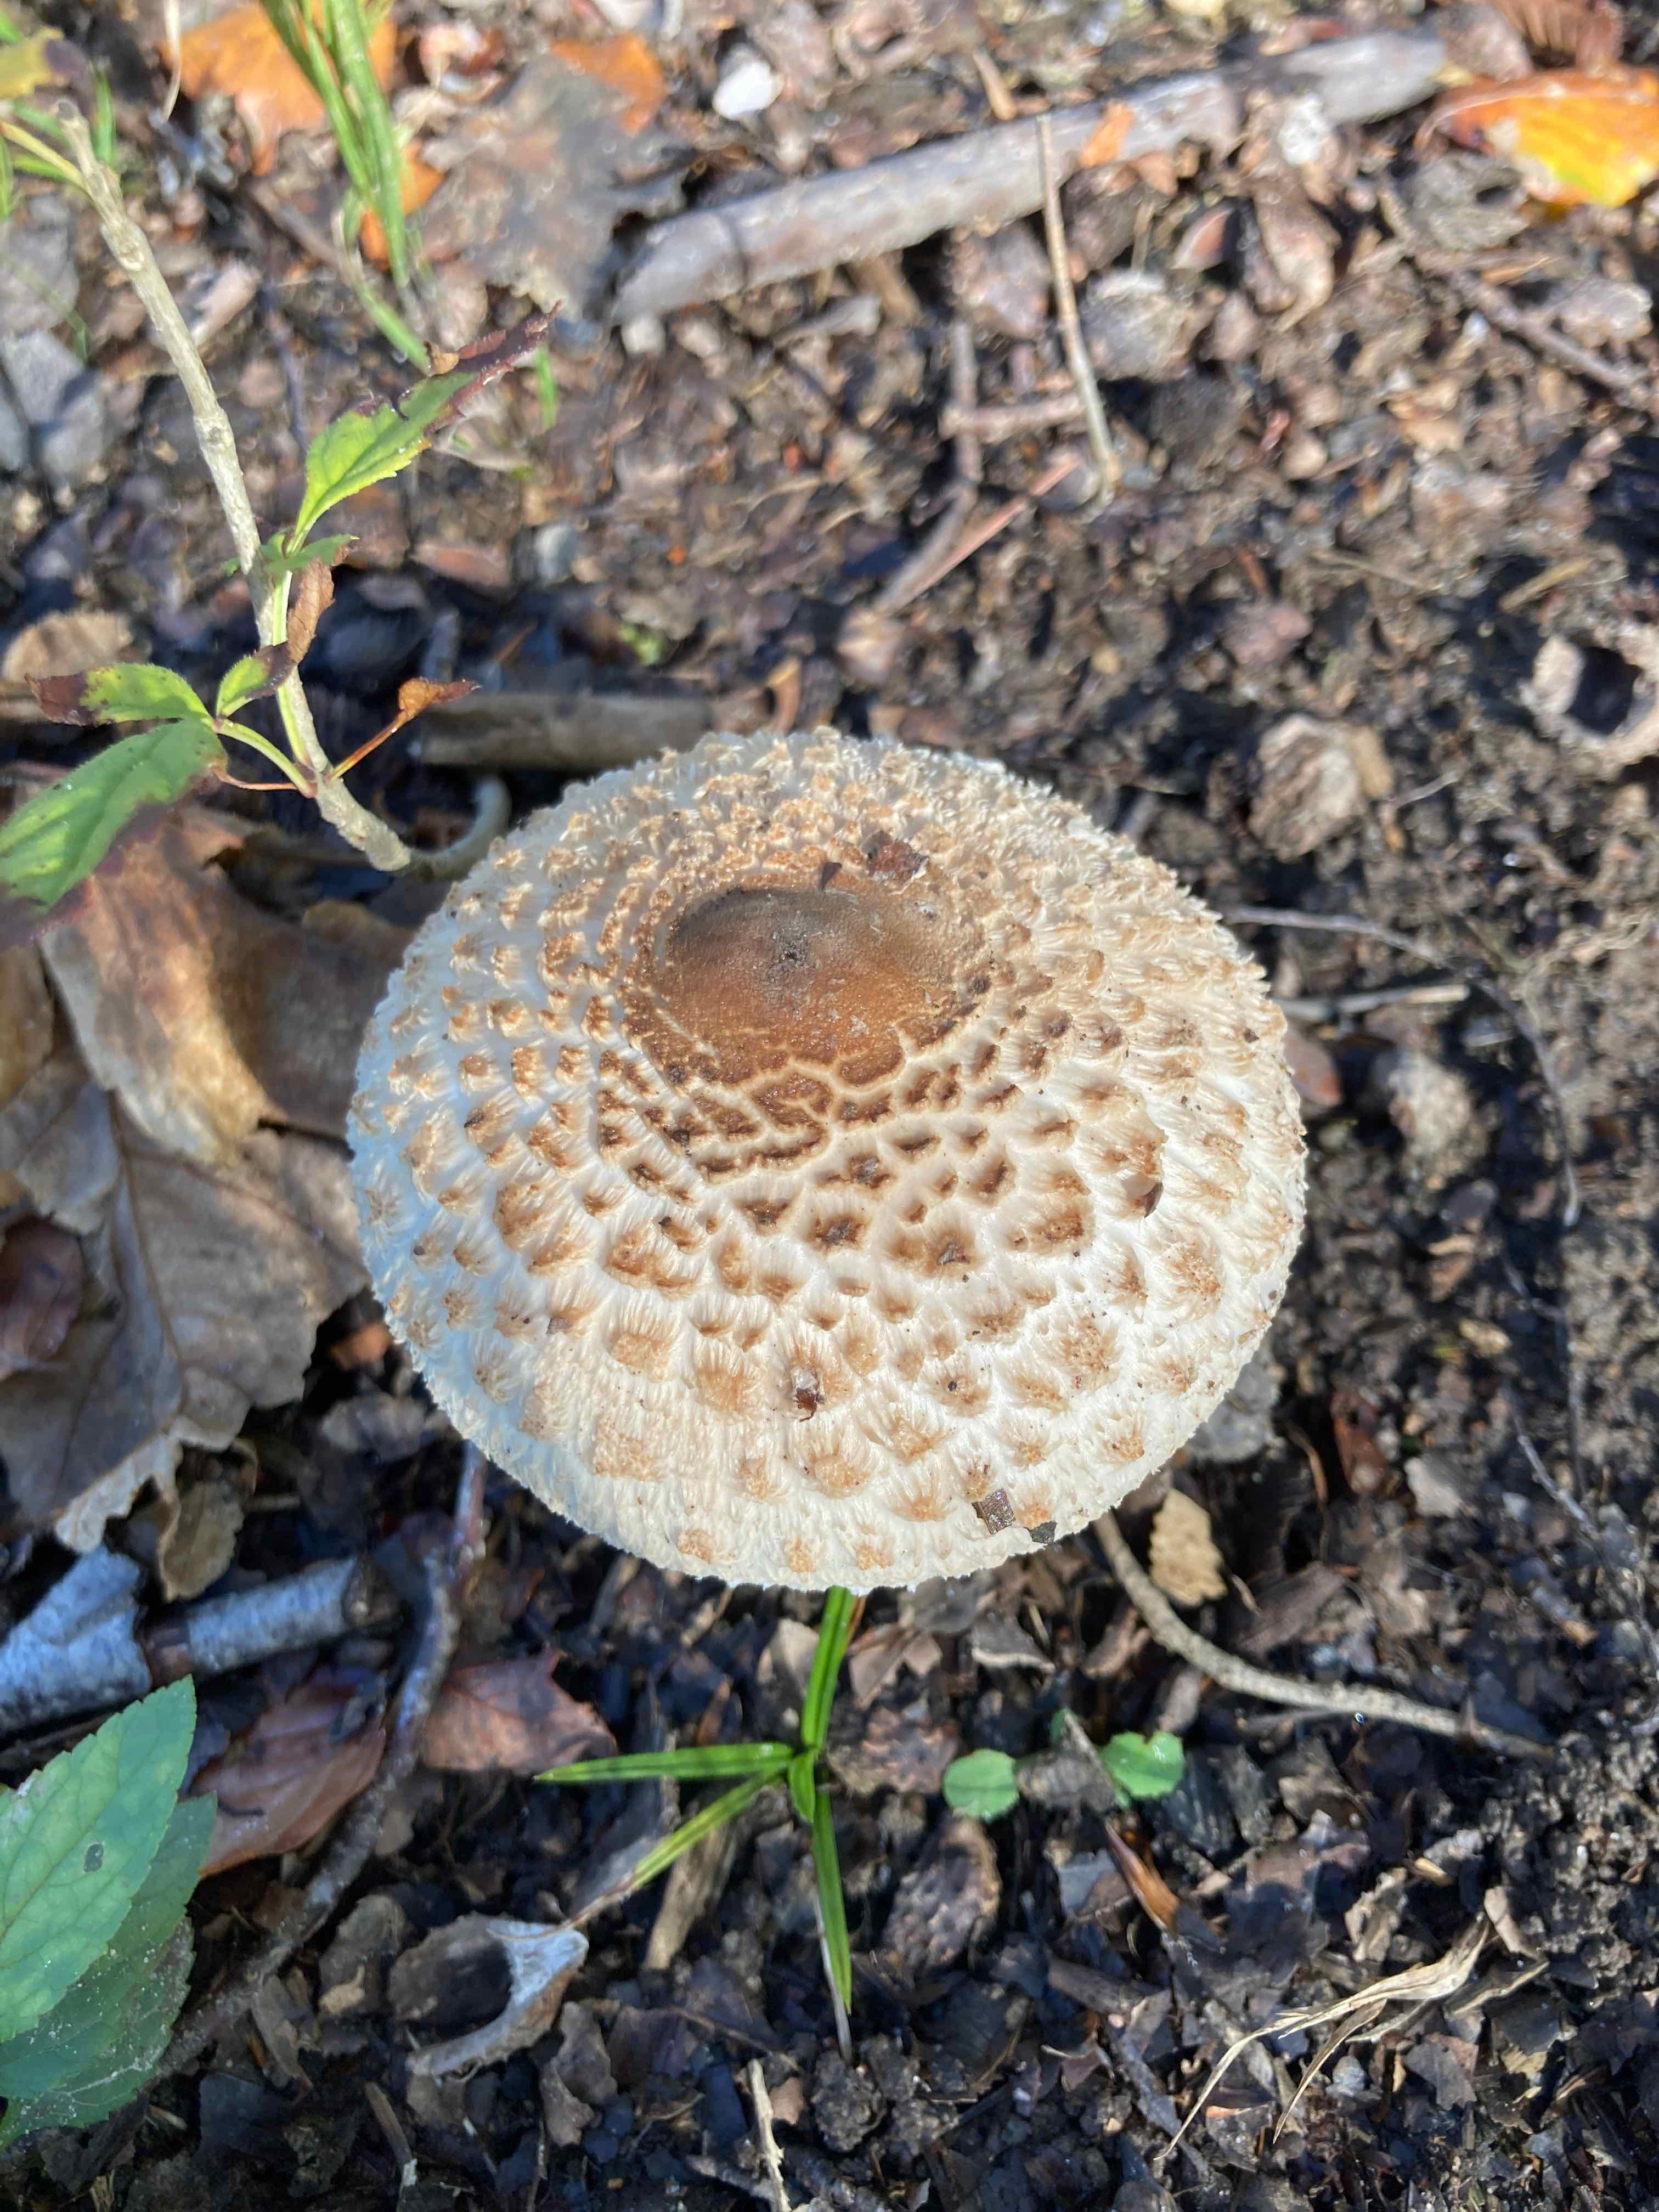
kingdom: Fungi
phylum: Basidiomycota
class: Agaricomycetes
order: Agaricales
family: Agaricaceae
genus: Macrolepiota
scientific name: Macrolepiota fuliginosa
